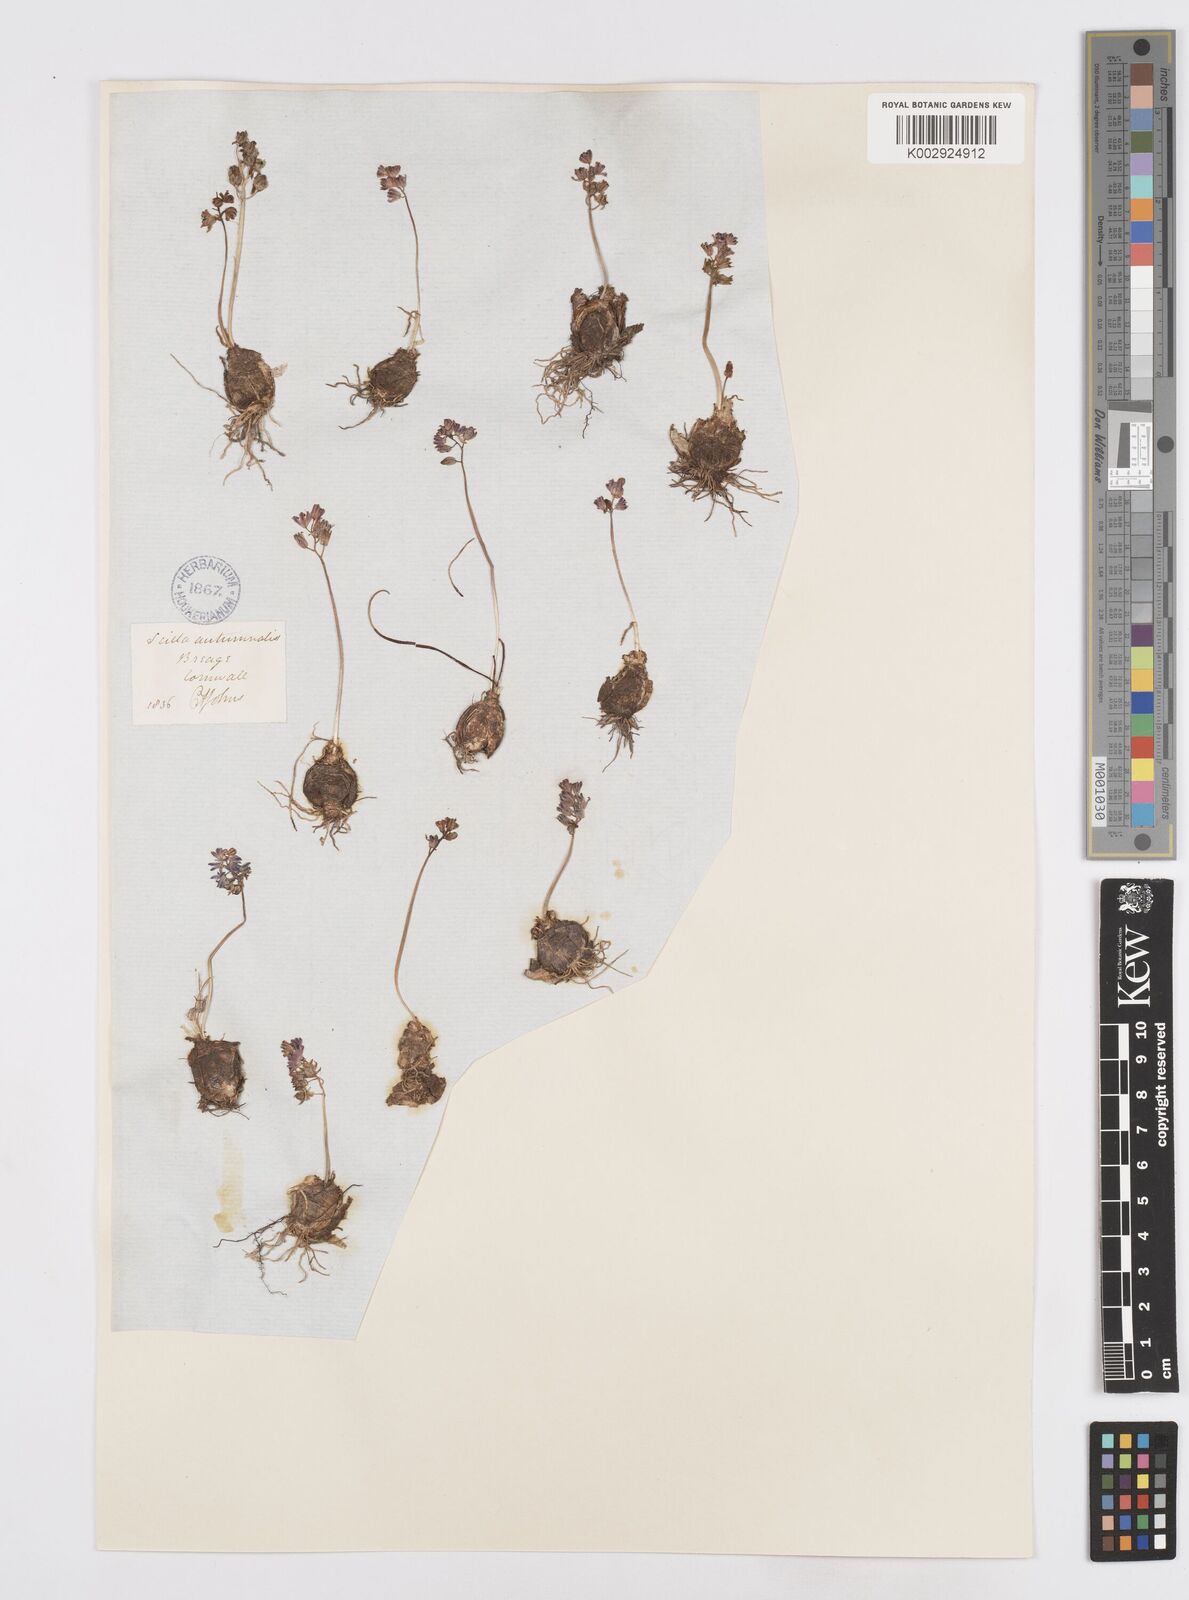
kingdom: Plantae
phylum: Tracheophyta
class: Liliopsida
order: Asparagales
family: Asparagaceae
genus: Prospero
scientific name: Prospero autumnale
